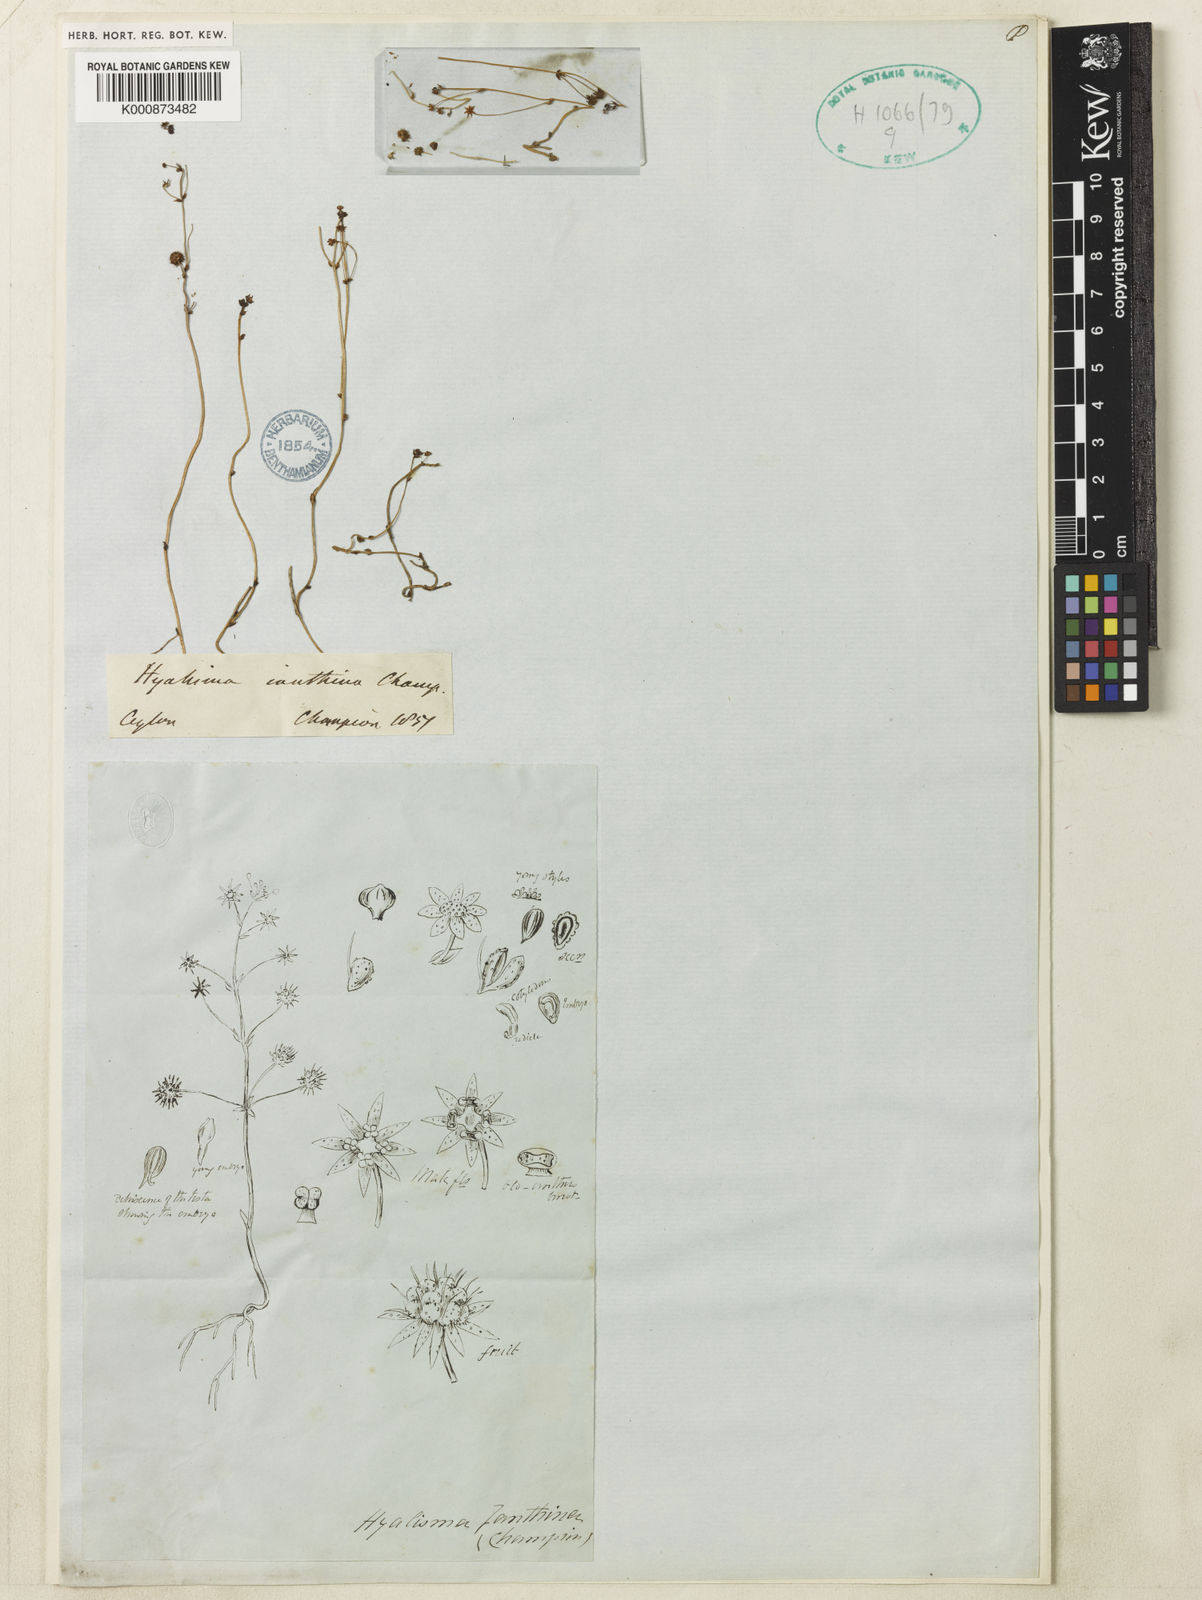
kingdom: Plantae
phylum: Tracheophyta
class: Liliopsida
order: Pandanales
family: Triuridaceae
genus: Sciaphila
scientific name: Sciaphila janthina
